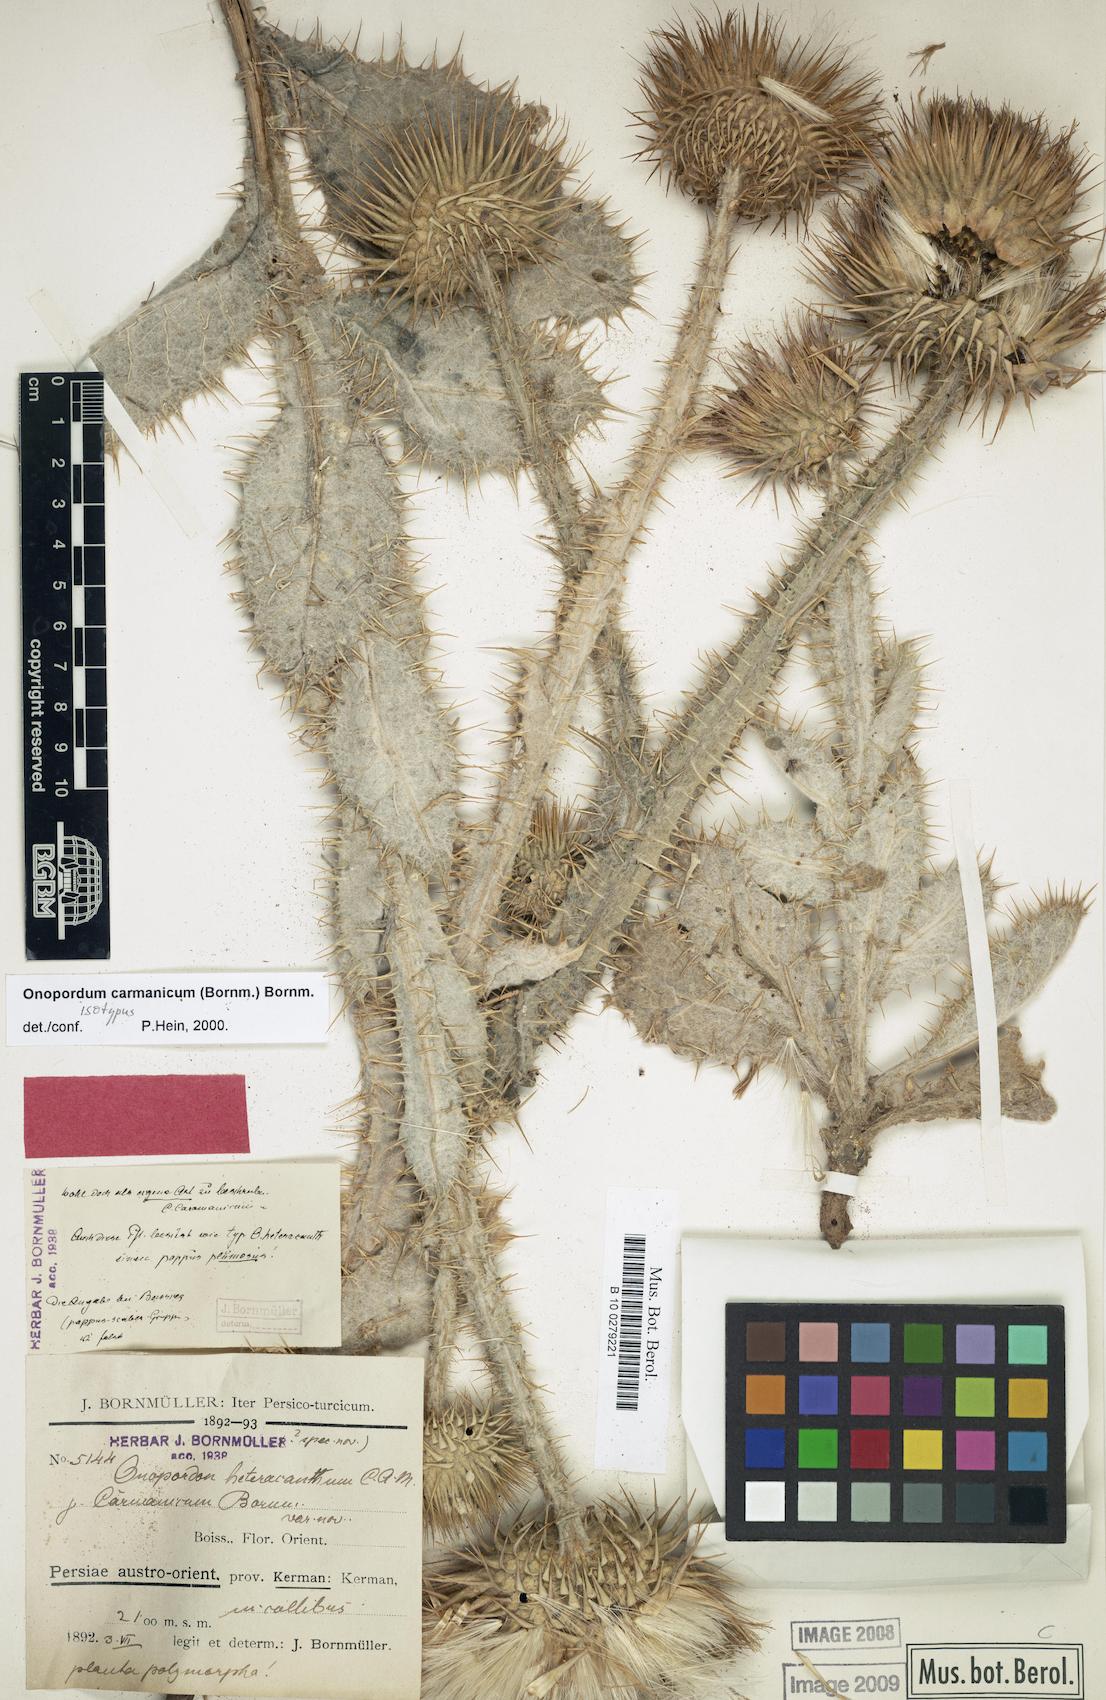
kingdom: Plantae
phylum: Tracheophyta
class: Magnoliopsida
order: Asterales
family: Asteraceae
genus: Onopordum
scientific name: Onopordum carmanicum
